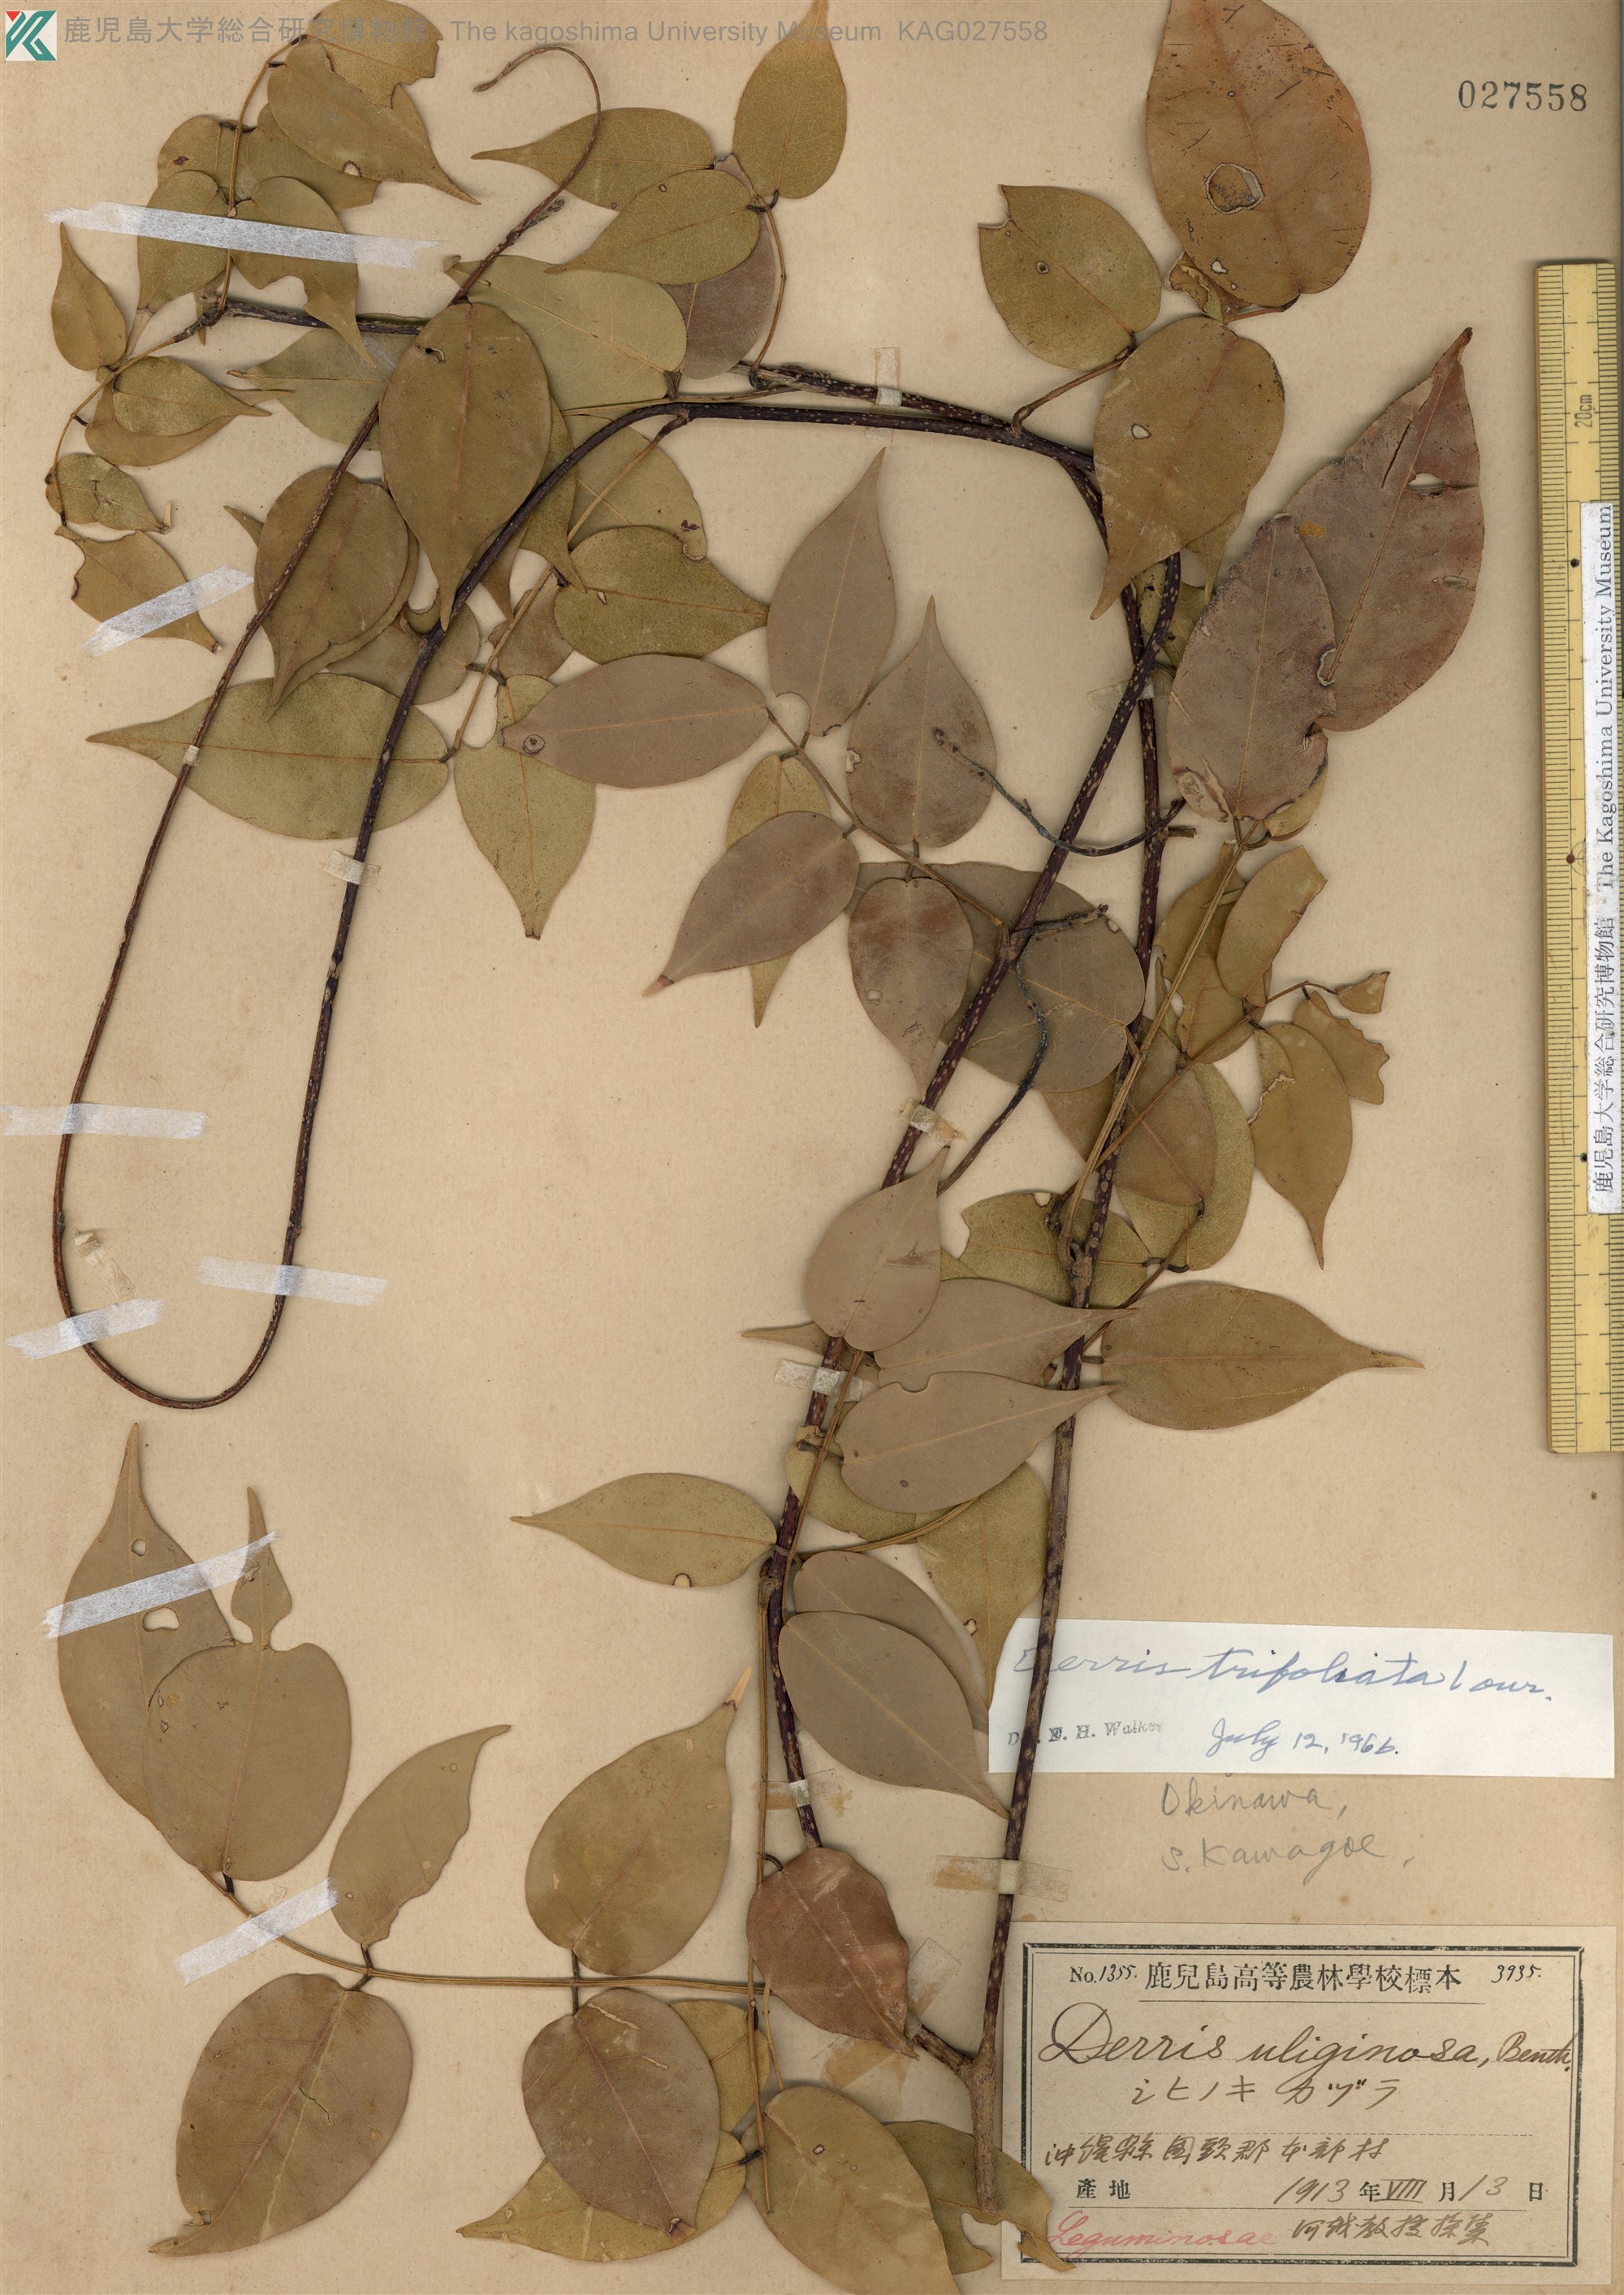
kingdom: Plantae
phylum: Tracheophyta
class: Magnoliopsida
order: Fabales
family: Fabaceae
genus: Derris
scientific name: Derris trifoliata
